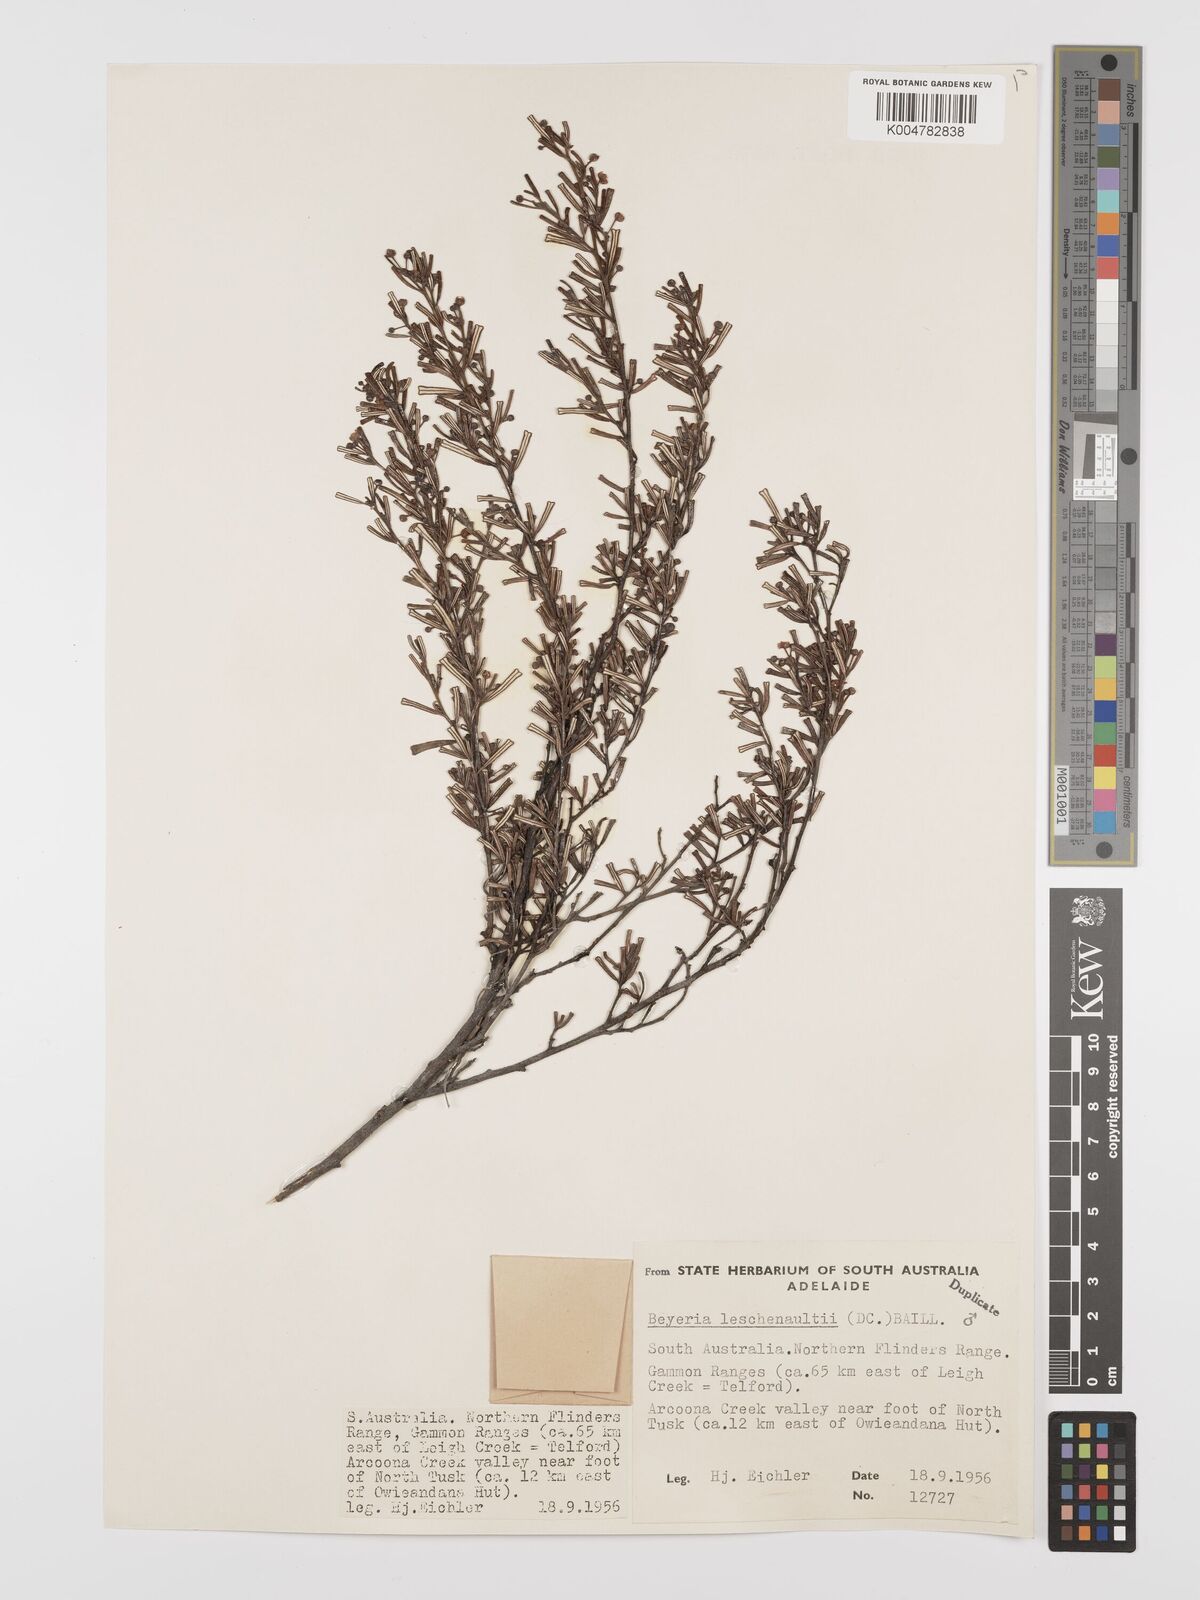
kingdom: Plantae
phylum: Tracheophyta
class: Magnoliopsida
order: Malpighiales
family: Euphorbiaceae
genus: Beyeria
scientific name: Beyeria lechenaultii
